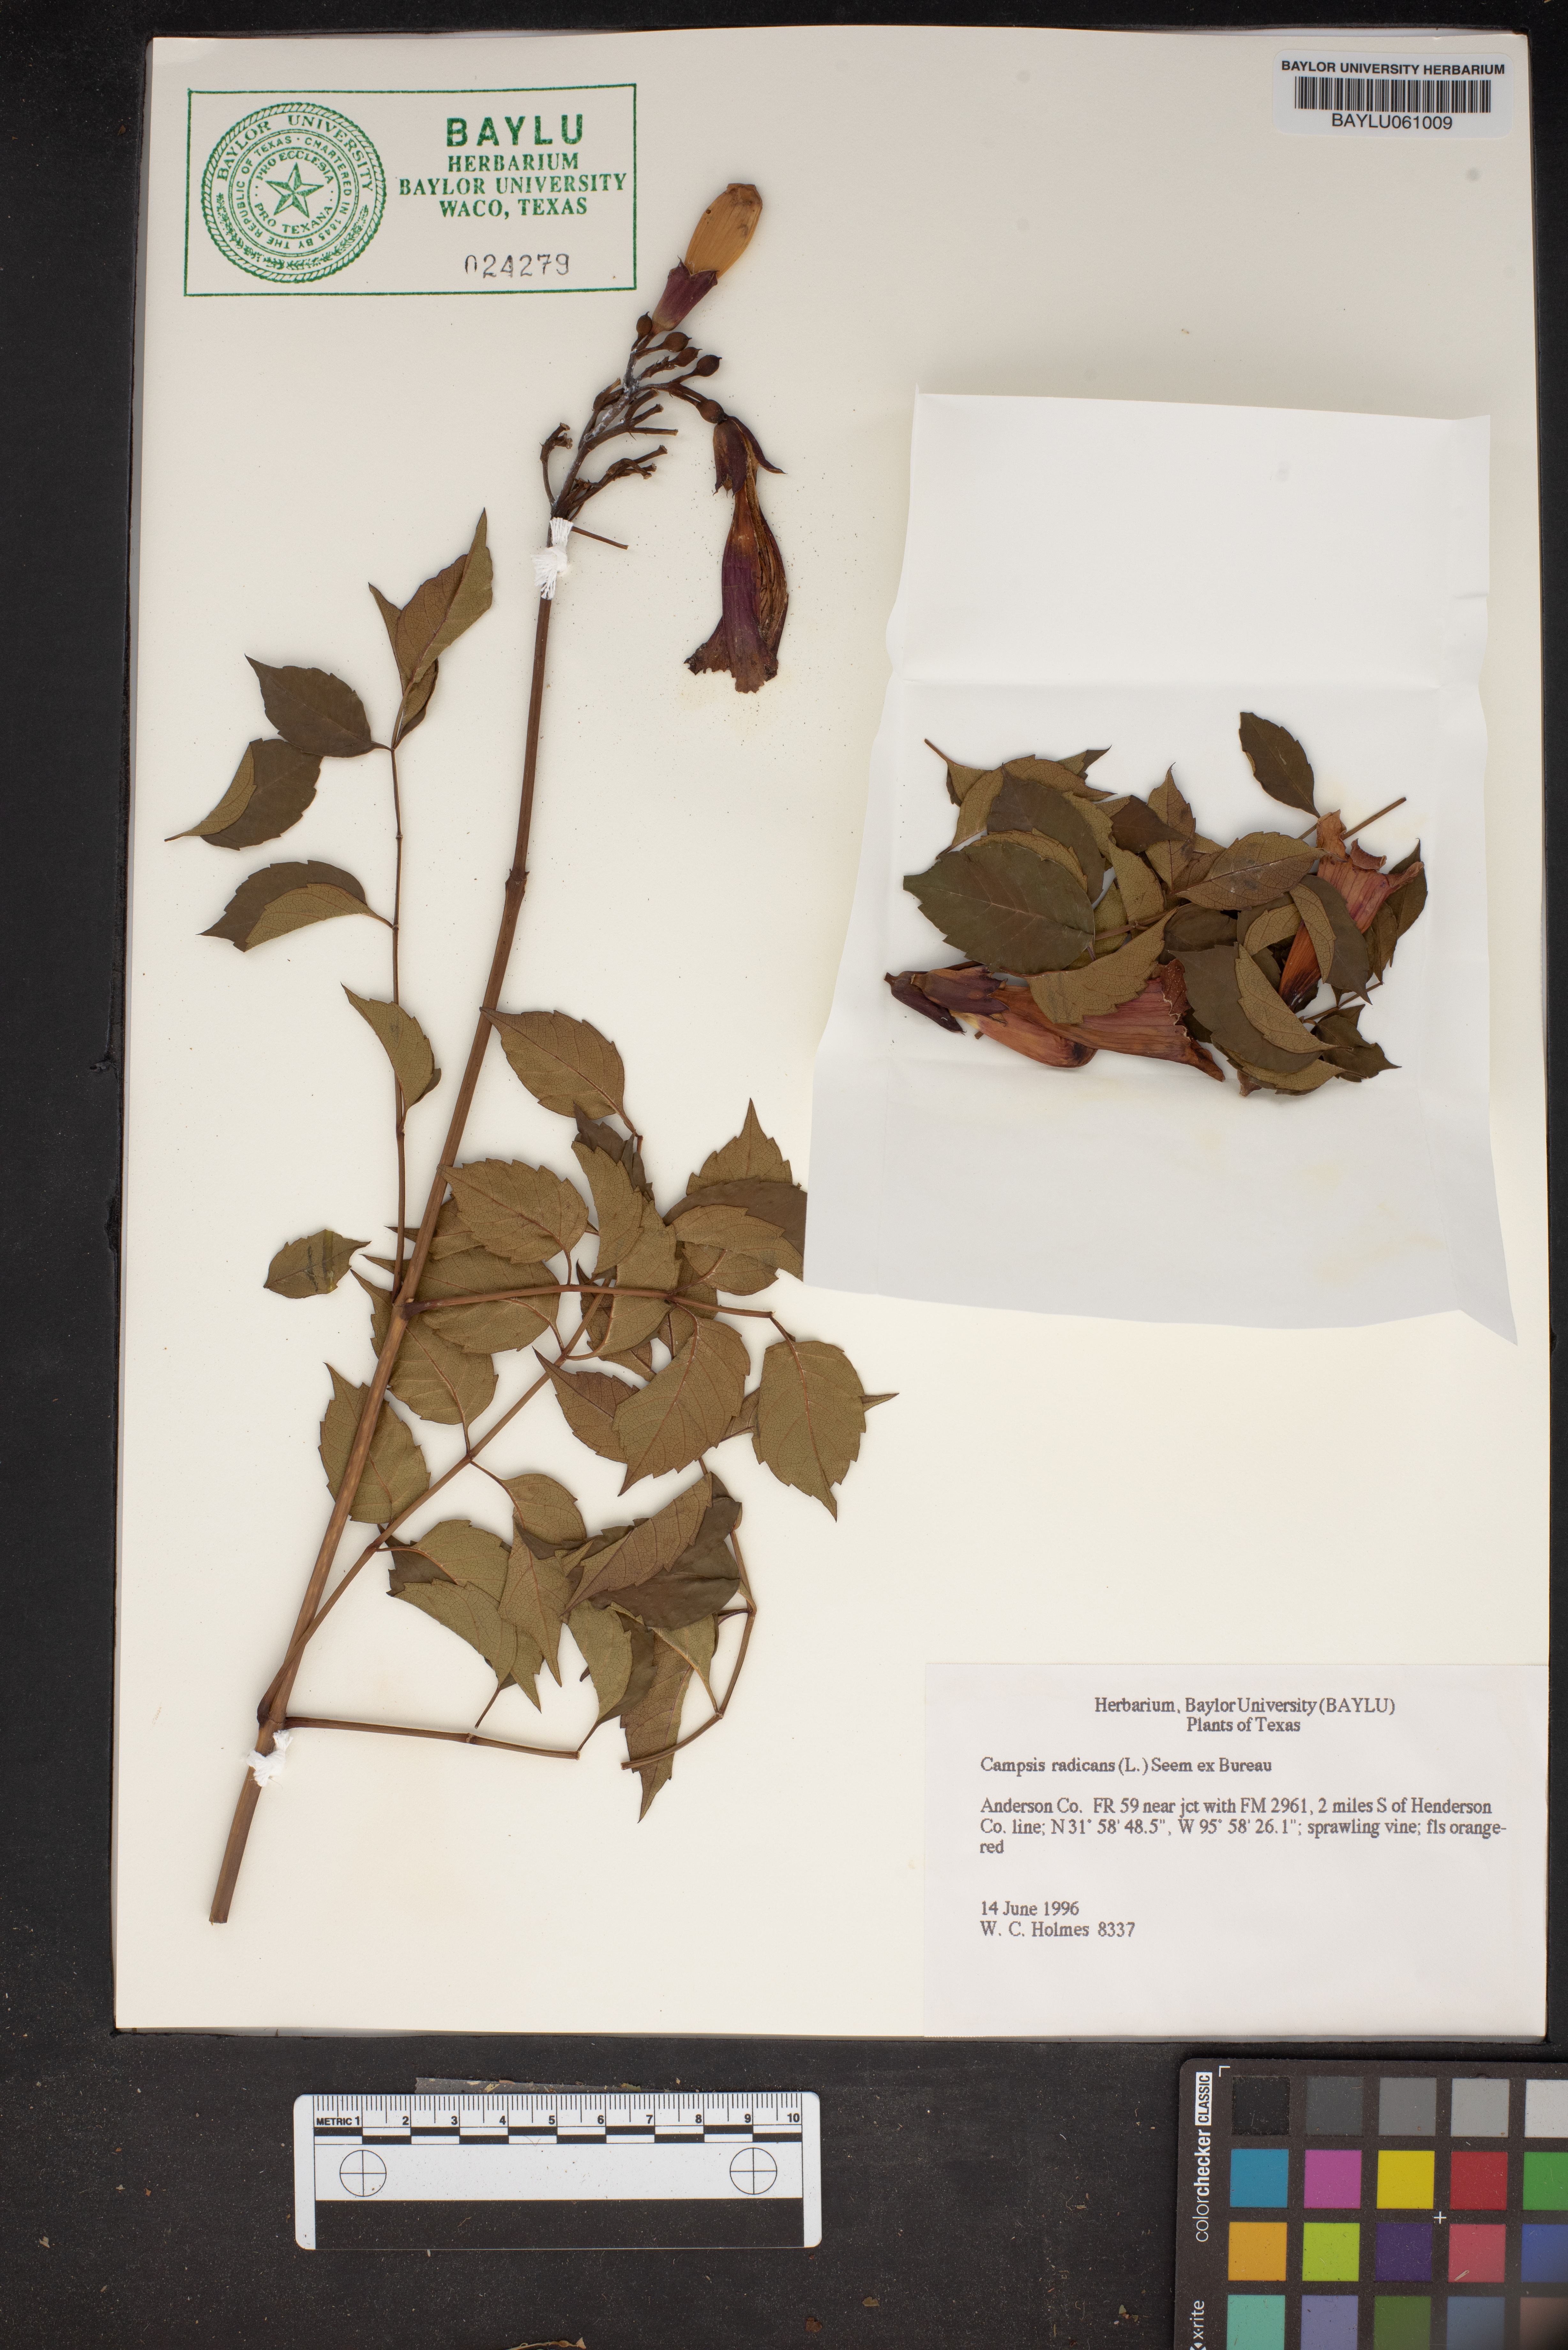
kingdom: Plantae
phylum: Tracheophyta
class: Magnoliopsida
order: Lamiales
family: Bignoniaceae
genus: Campsis
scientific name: Campsis radicans
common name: Trumpet-creeper
